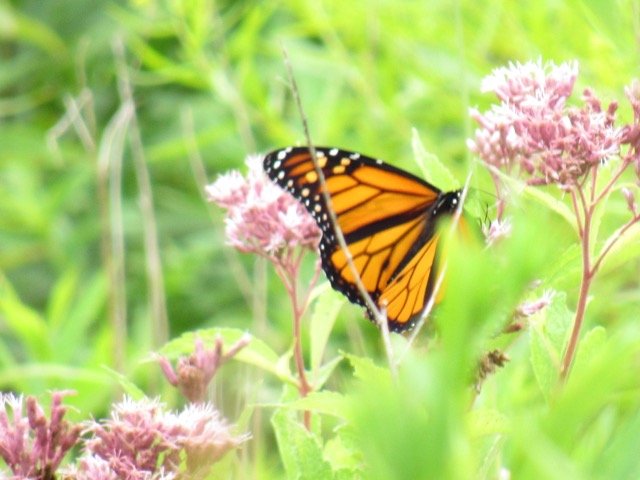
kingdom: Animalia
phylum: Arthropoda
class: Insecta
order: Lepidoptera
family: Nymphalidae
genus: Danaus
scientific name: Danaus plexippus
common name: Monarch
